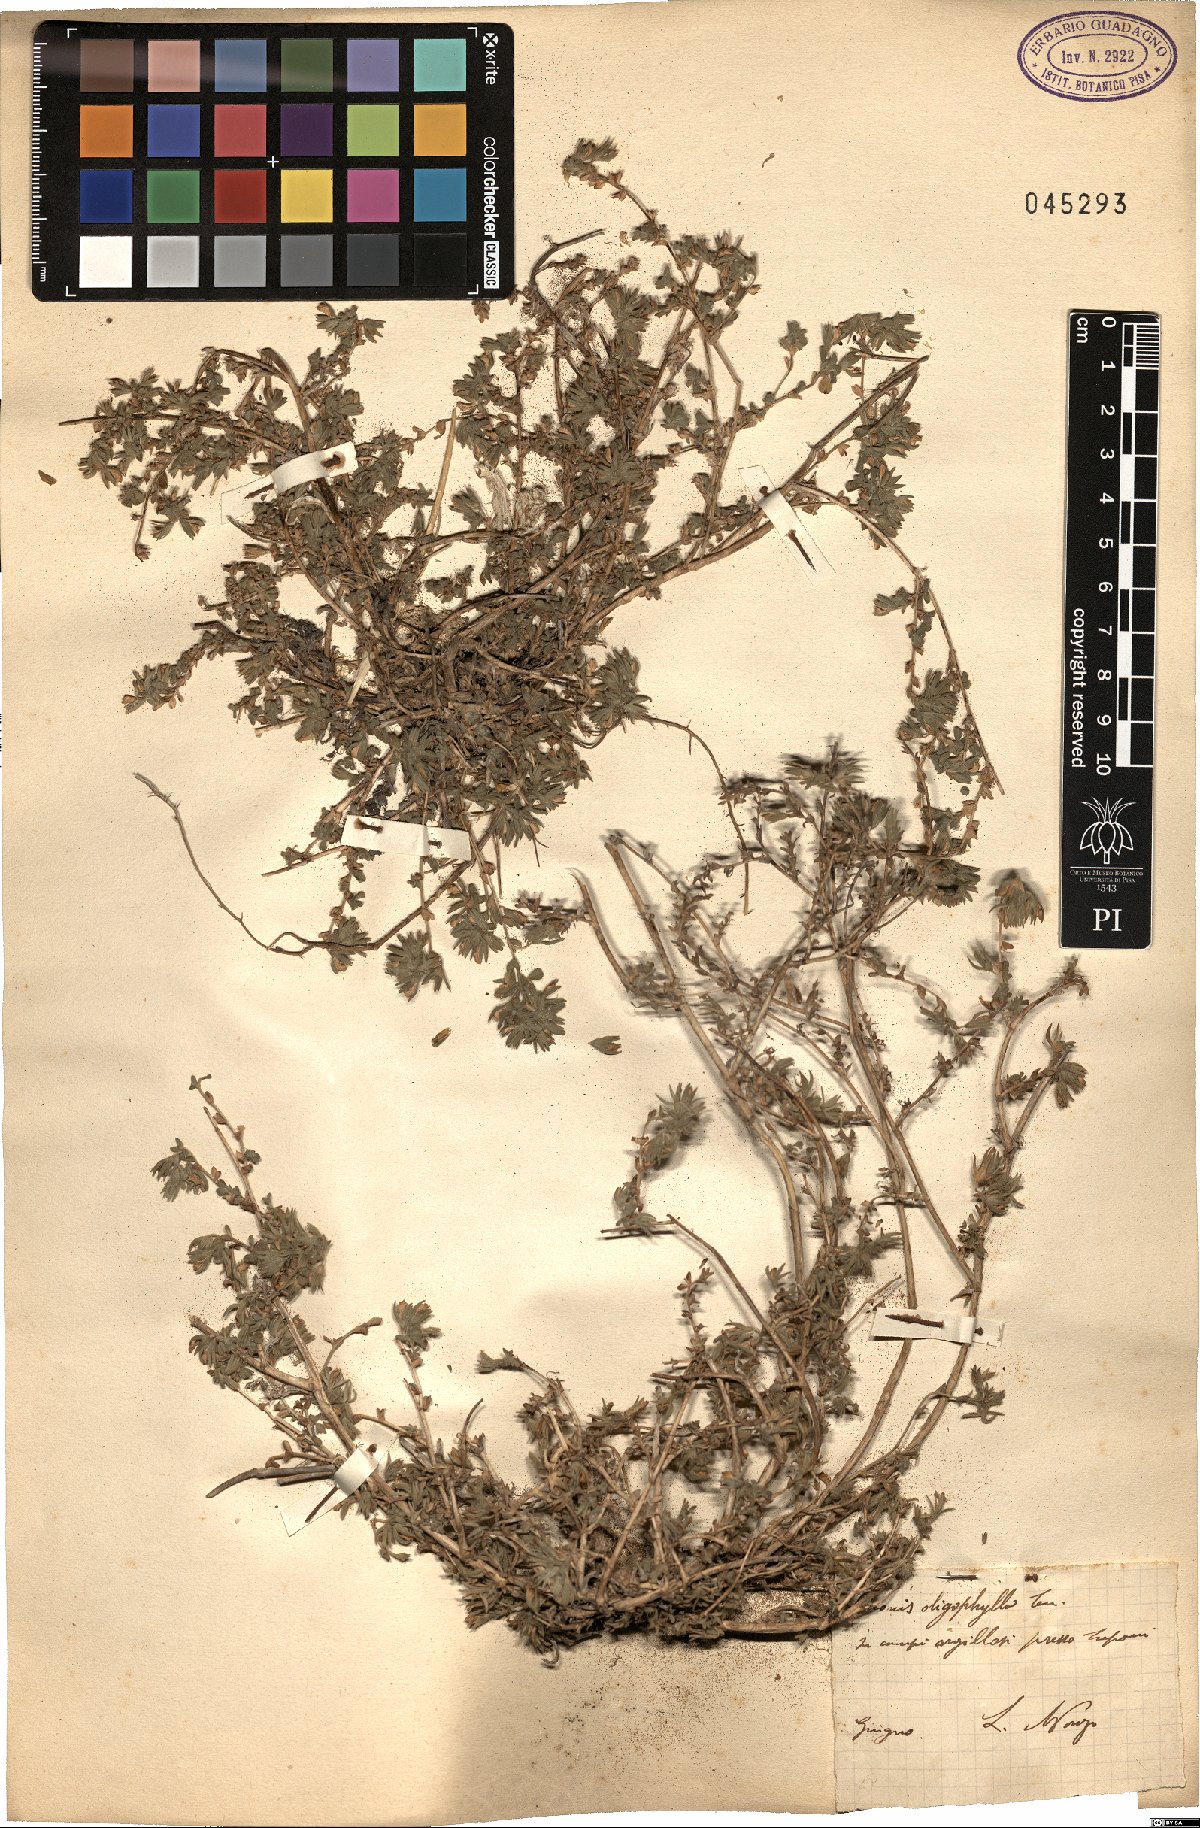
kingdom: Plantae
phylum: Tracheophyta
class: Magnoliopsida
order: Fabales
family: Fabaceae
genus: Ononis
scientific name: Ononis oligophylla
